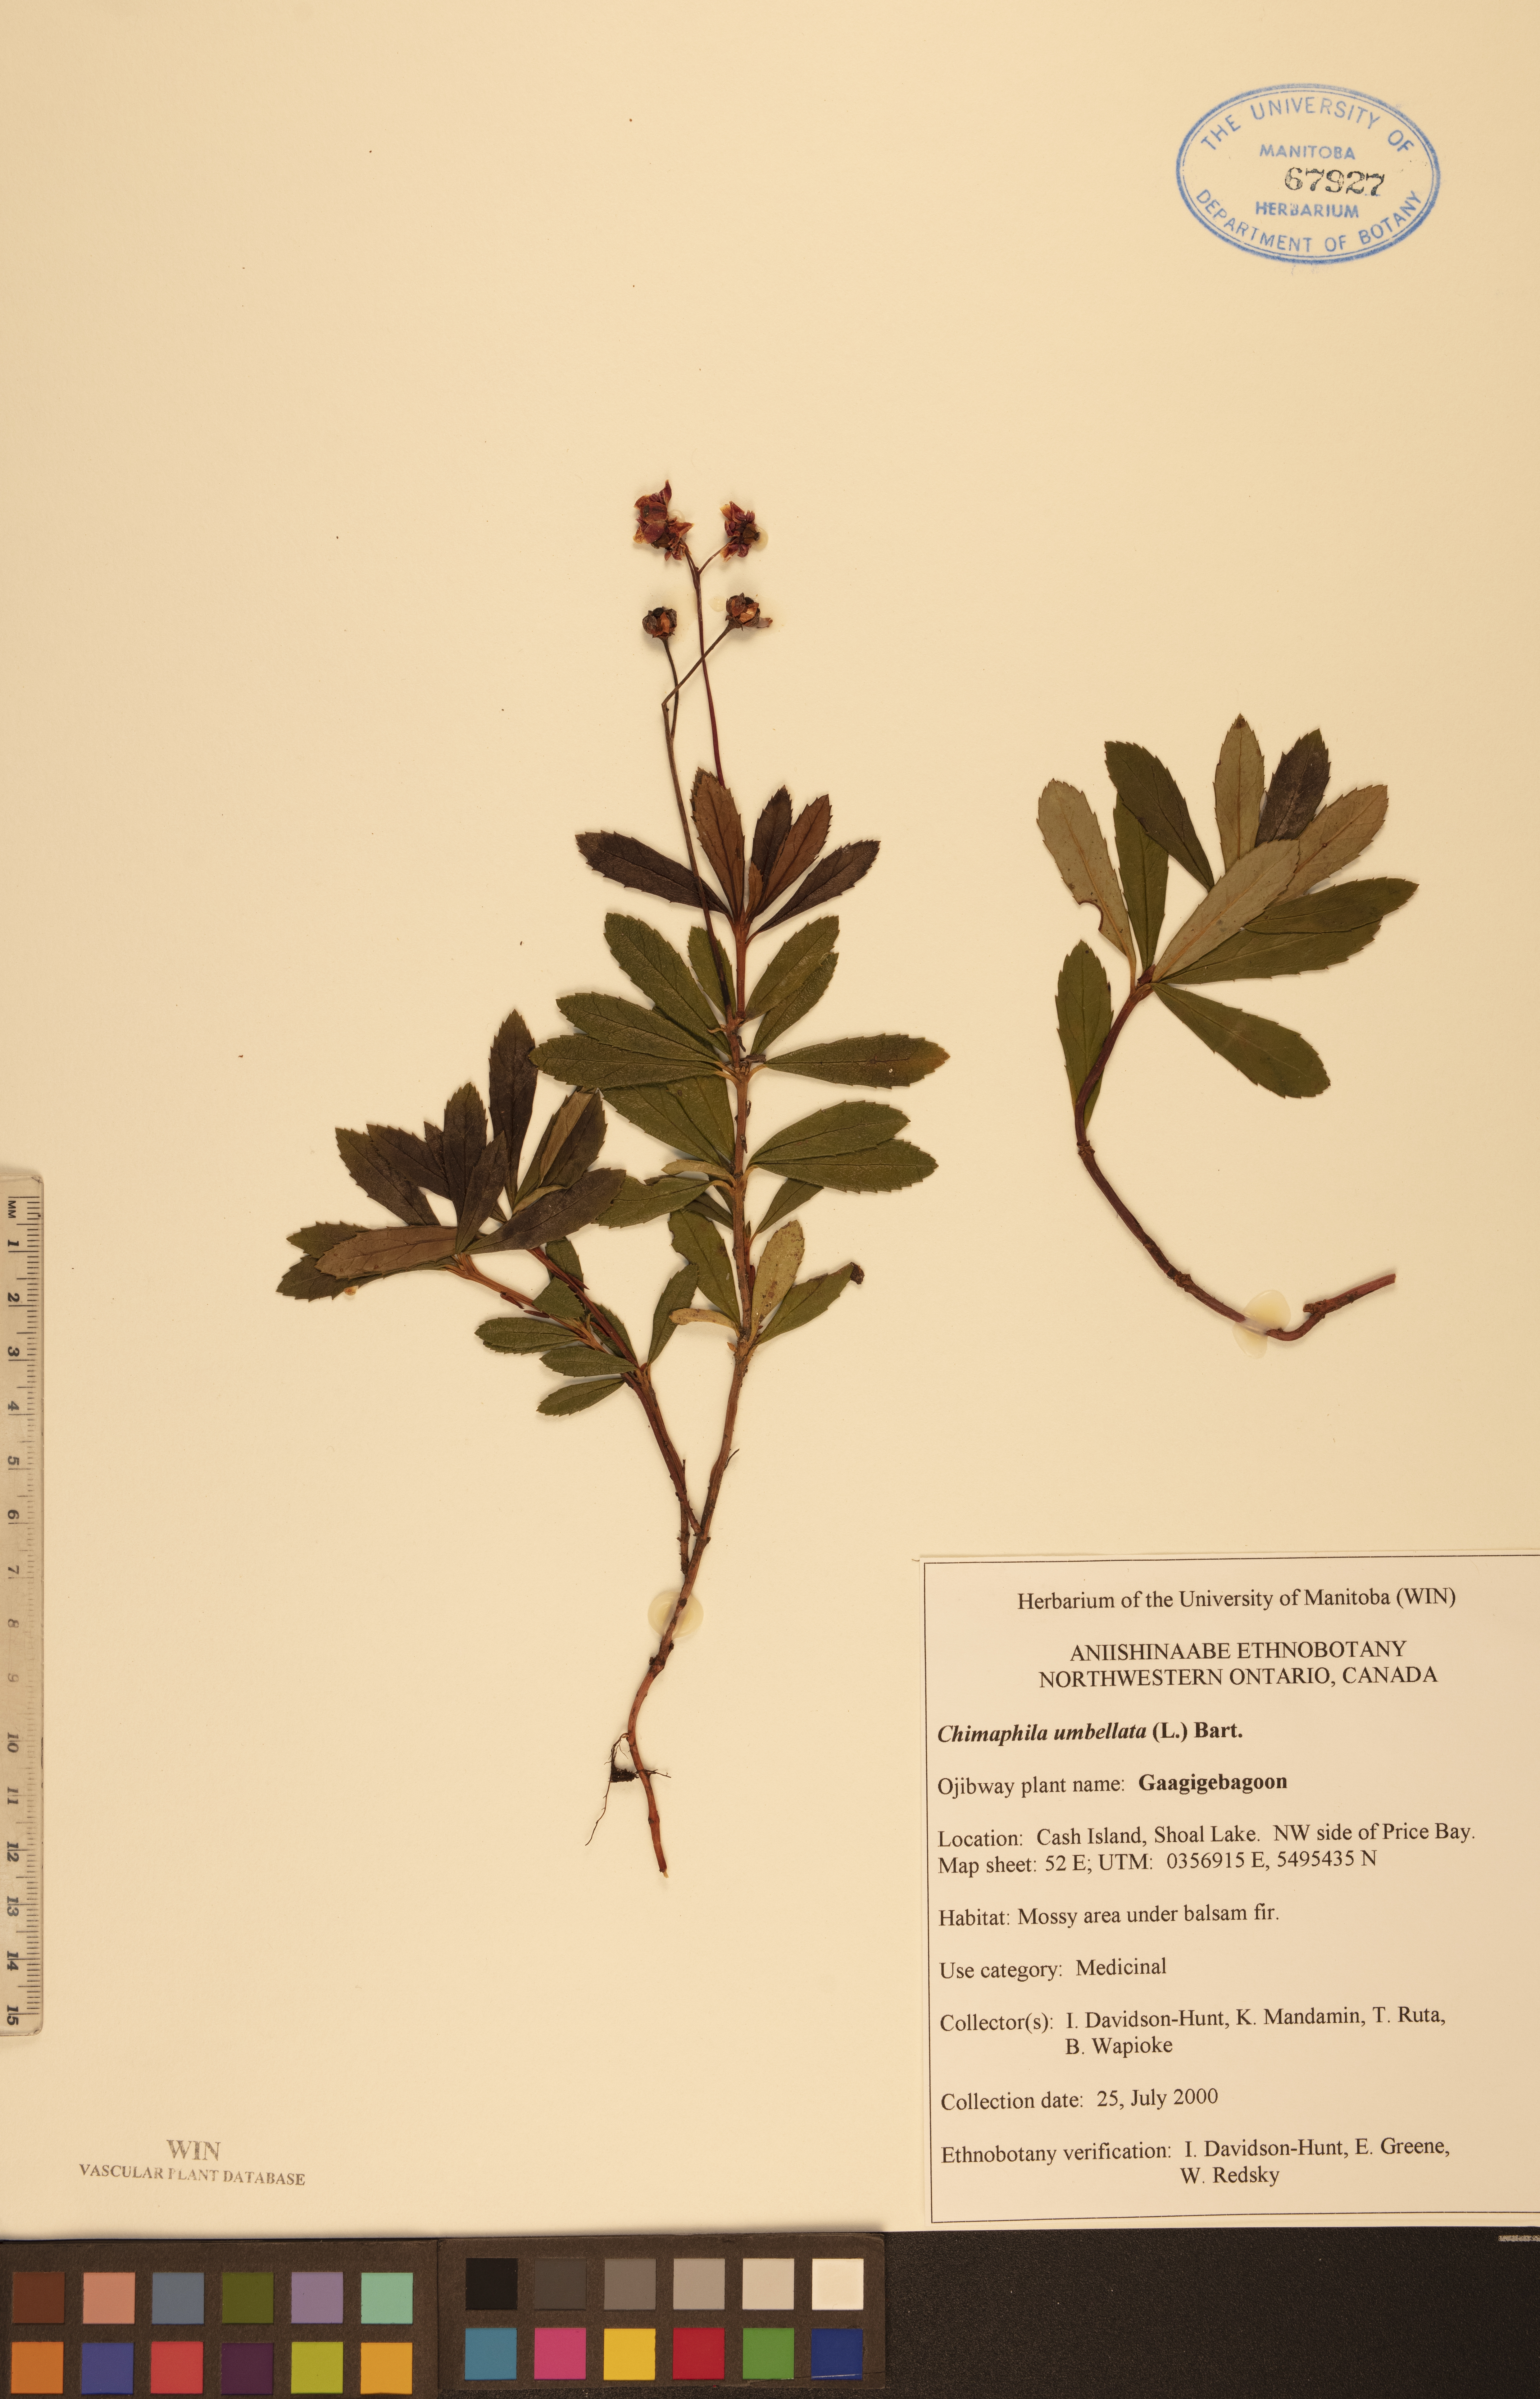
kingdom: Plantae
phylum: Tracheophyta
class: Magnoliopsida
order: Ericales
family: Ericaceae
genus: Chimaphila
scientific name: Chimaphila umbellata
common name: Pipsissewa
